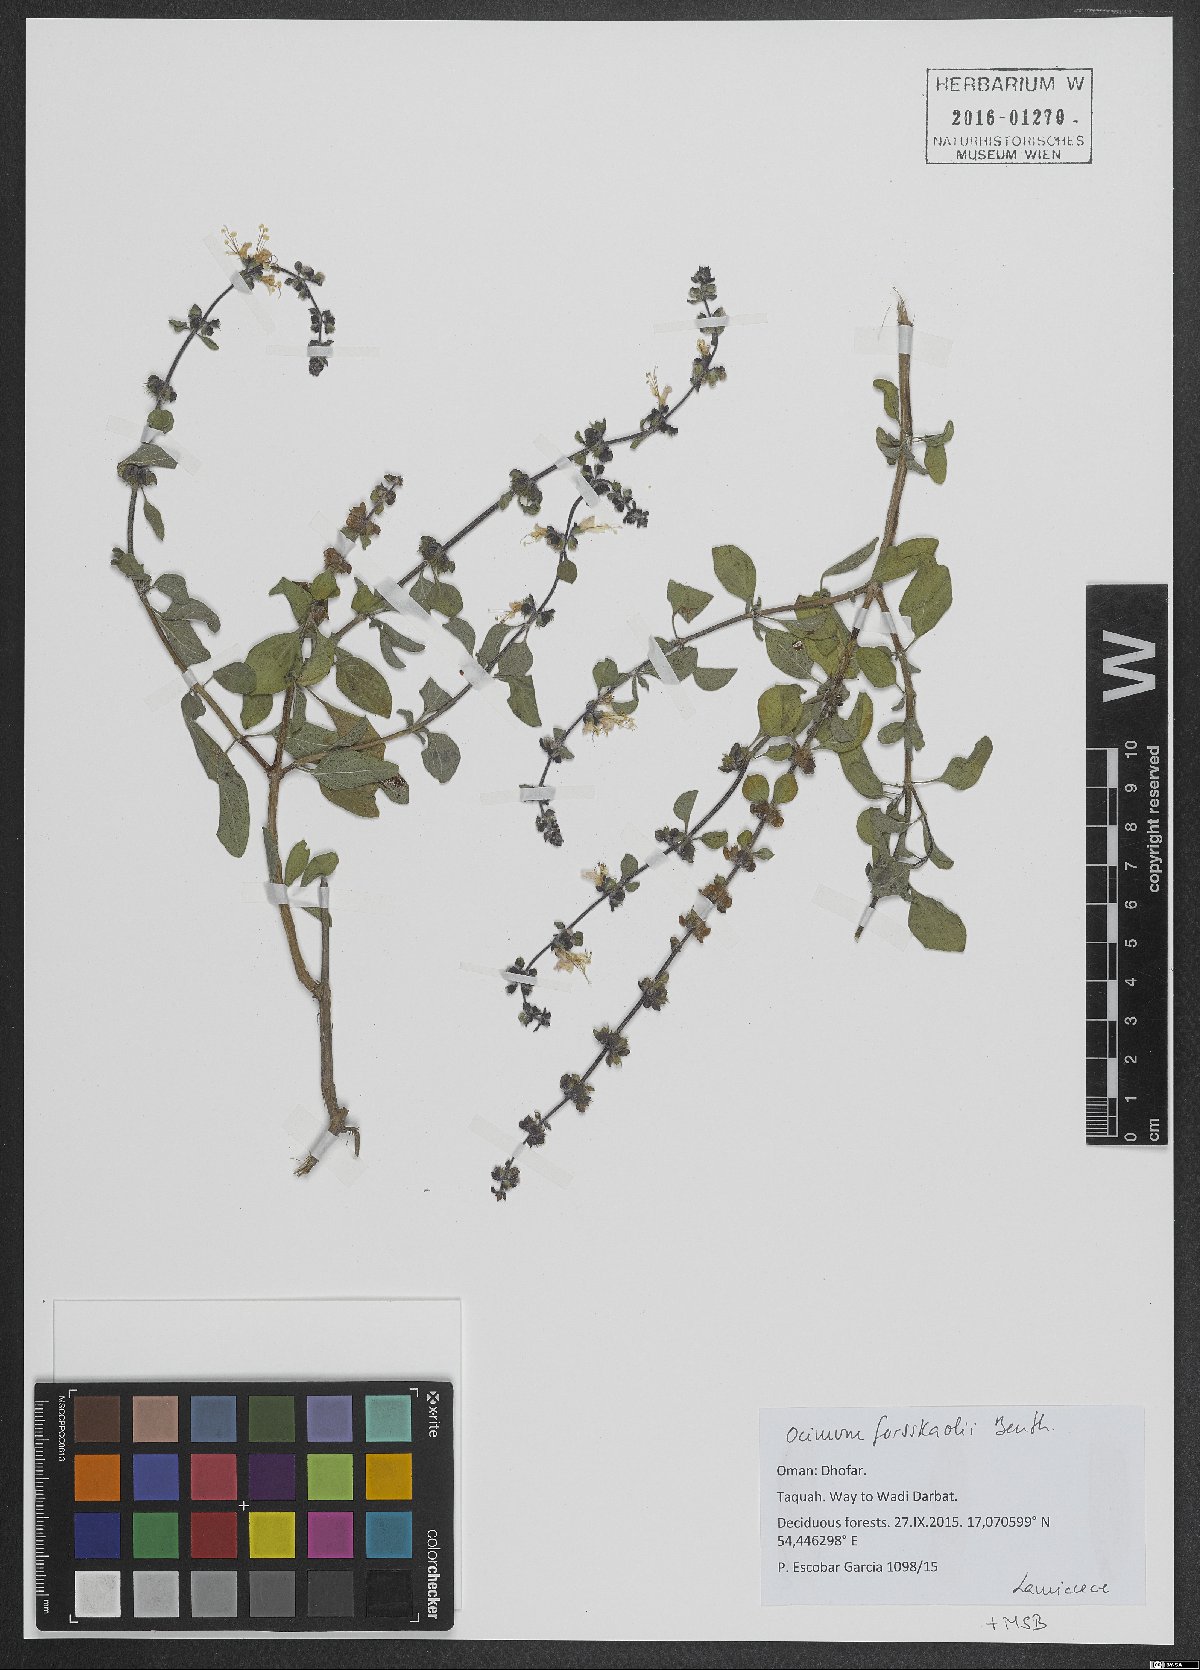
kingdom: Plantae
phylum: Tracheophyta
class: Magnoliopsida
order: Lamiales
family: Lamiaceae
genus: Ocimum
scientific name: Ocimum forskoelei
